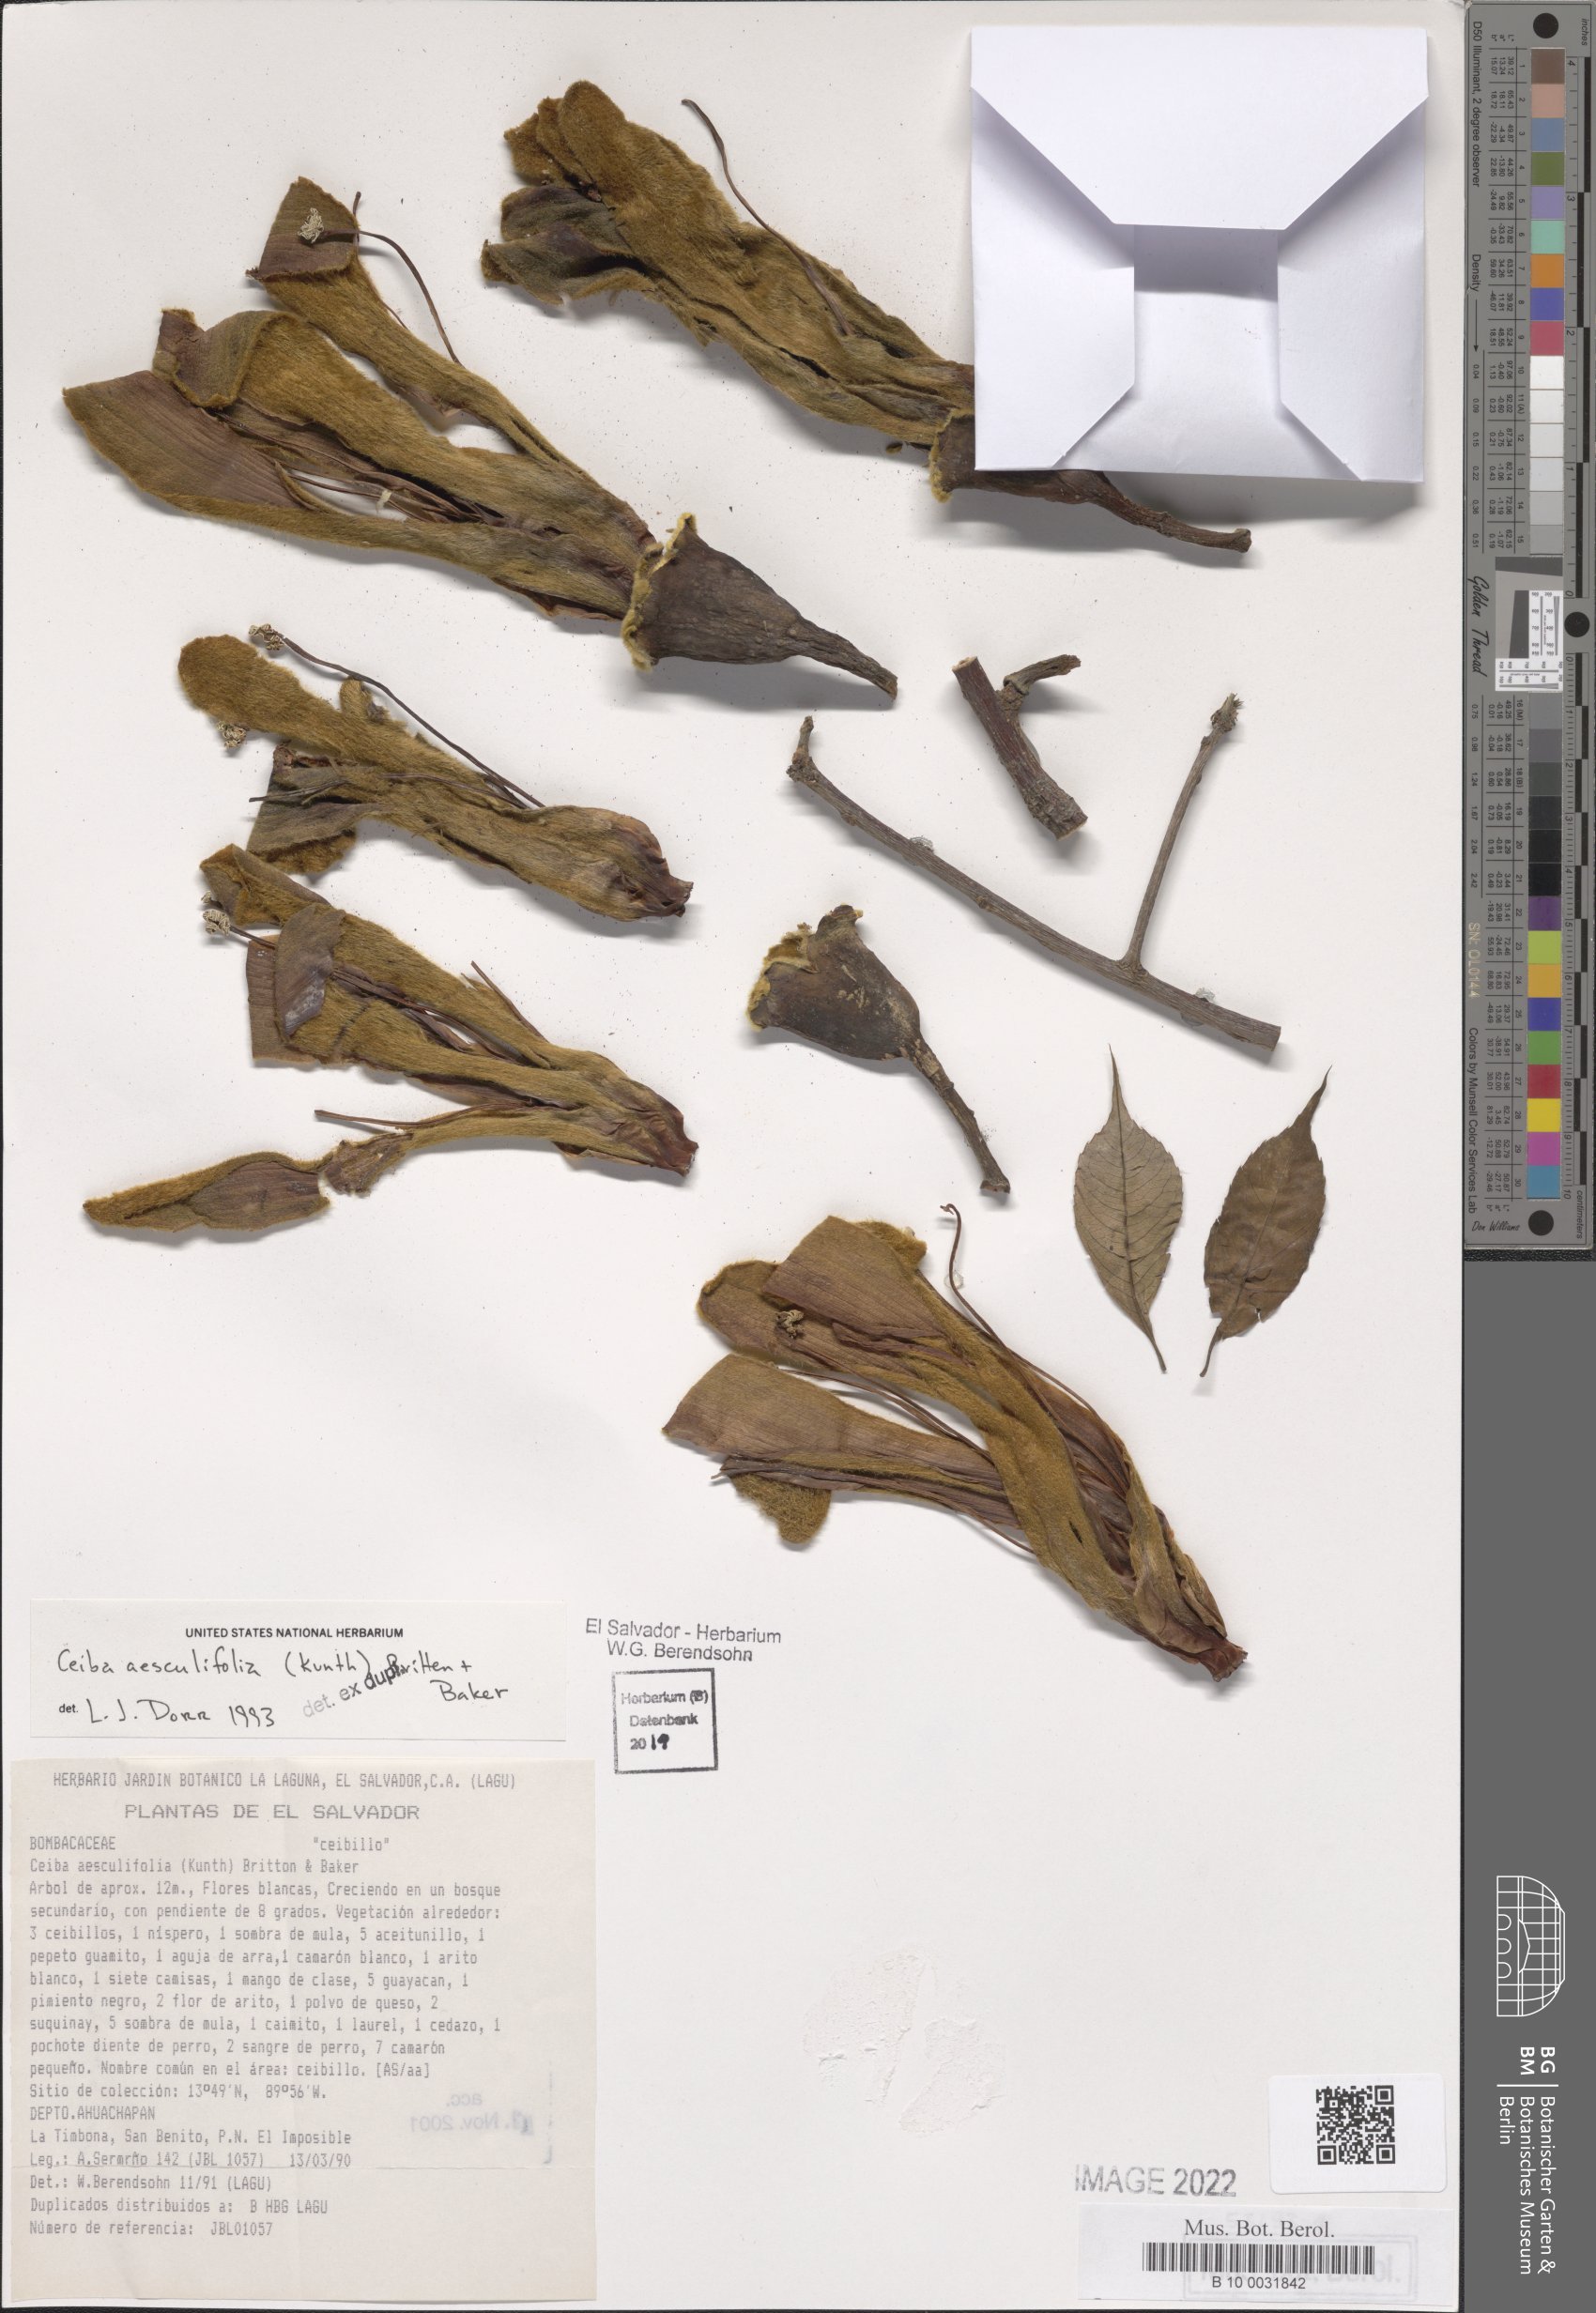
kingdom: Plantae
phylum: Tracheophyta
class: Magnoliopsida
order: Malvales
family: Malvaceae
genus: Ceiba
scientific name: Ceiba aesculifolia
